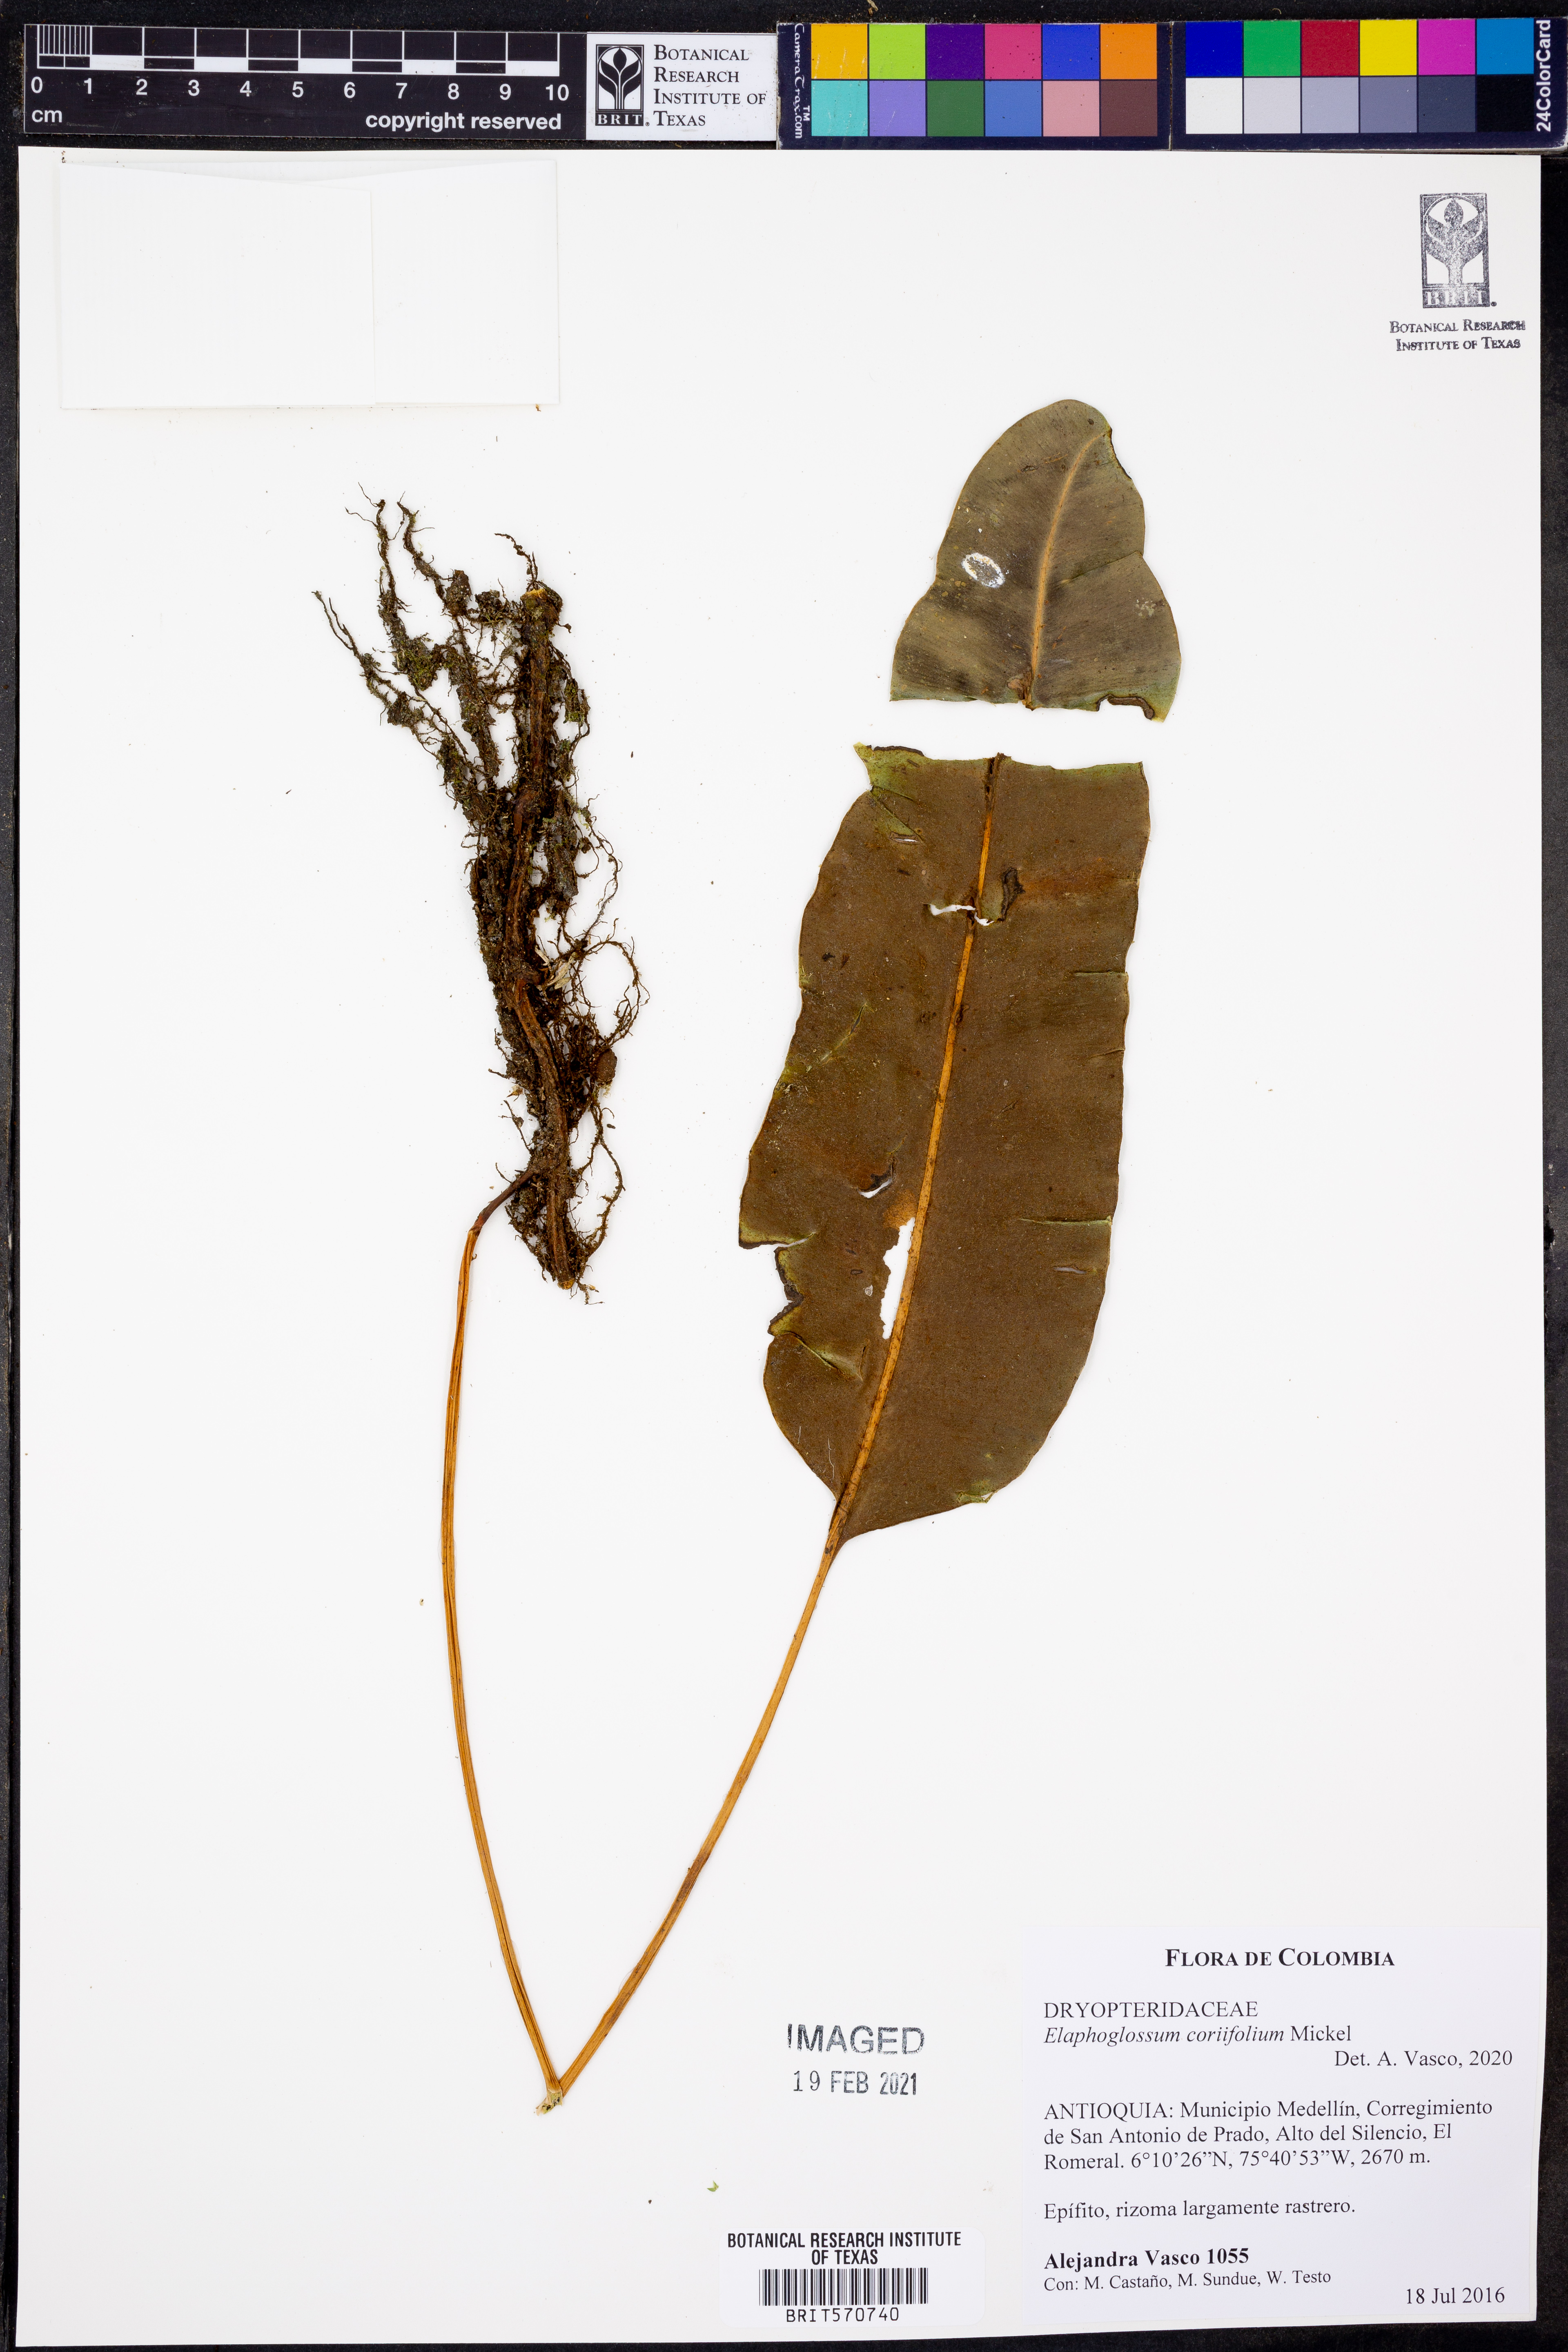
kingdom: Plantae
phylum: Tracheophyta
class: Polypodiopsida
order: Polypodiales
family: Dryopteridaceae
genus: Elaphoglossum
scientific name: Elaphoglossum coriifolium
